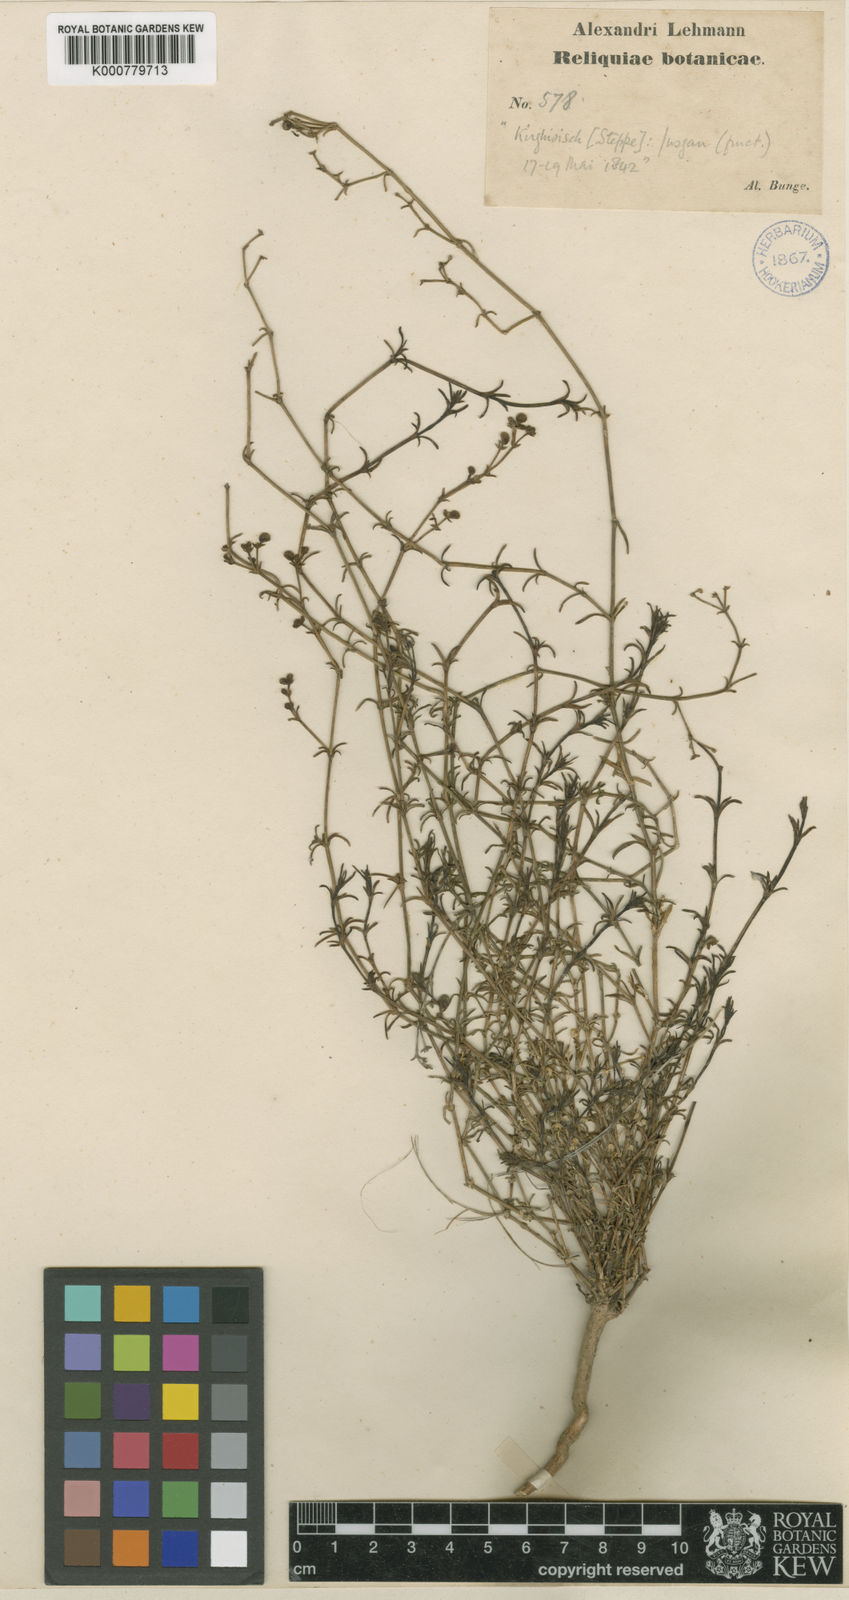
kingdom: Plantae
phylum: Tracheophyta
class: Magnoliopsida
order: Gentianales
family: Rubiaceae
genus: Asperula
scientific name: Asperula
